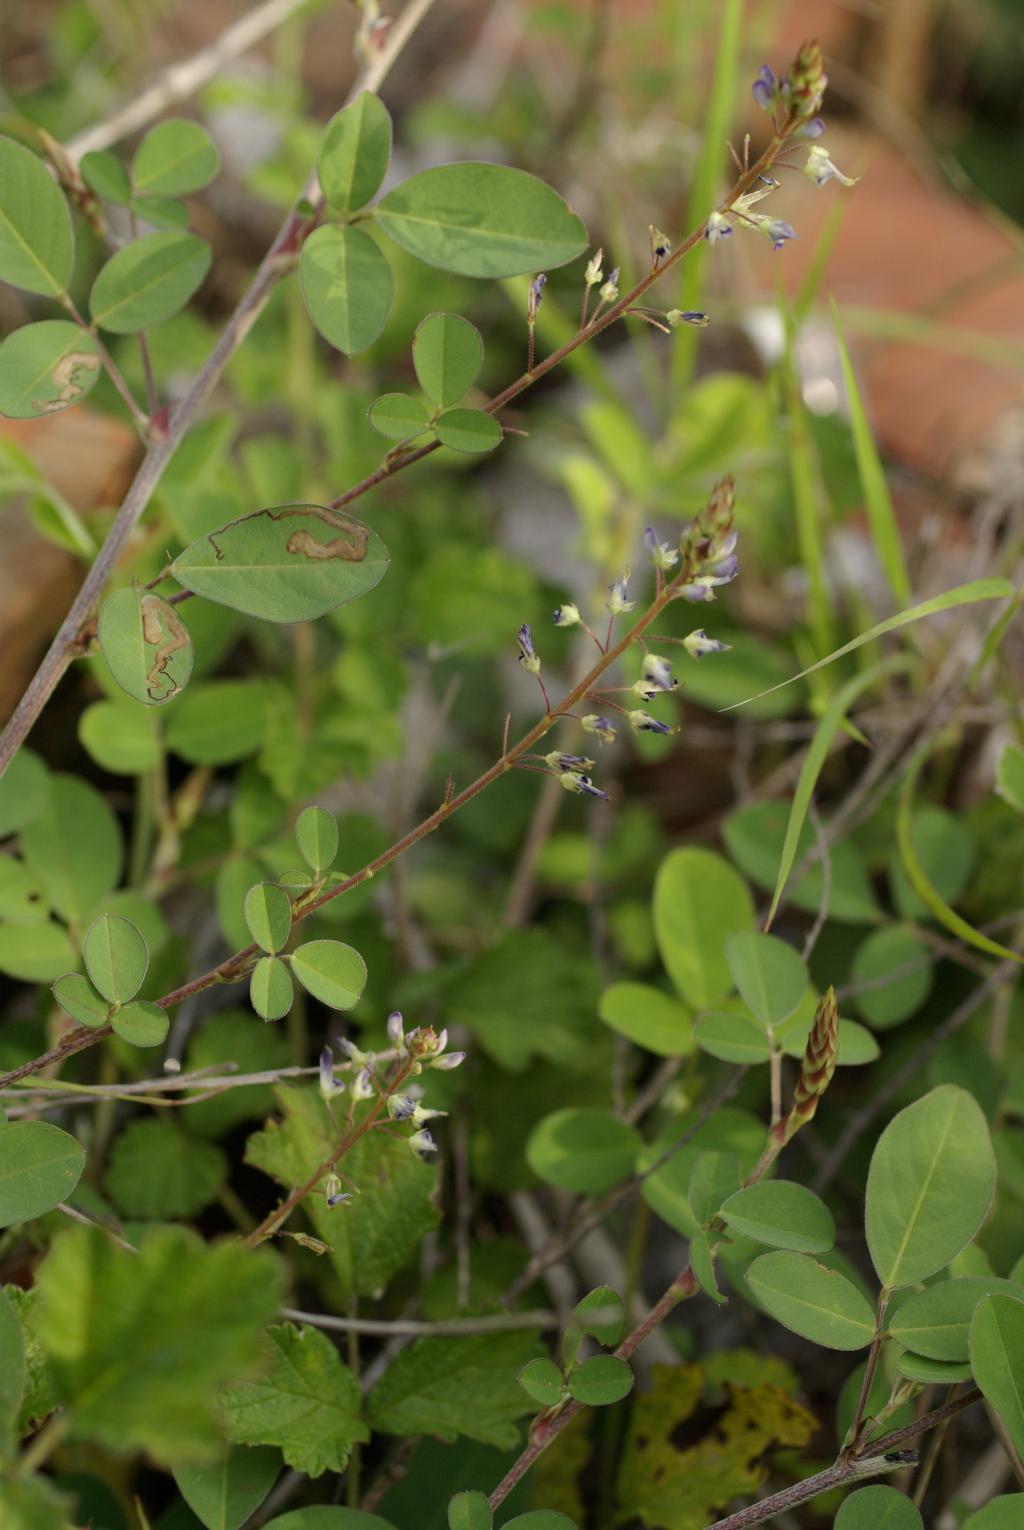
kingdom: Plantae
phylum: Tracheophyta
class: Magnoliopsida
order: Fabales
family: Fabaceae
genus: Grona
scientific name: Grona heterocarpos
